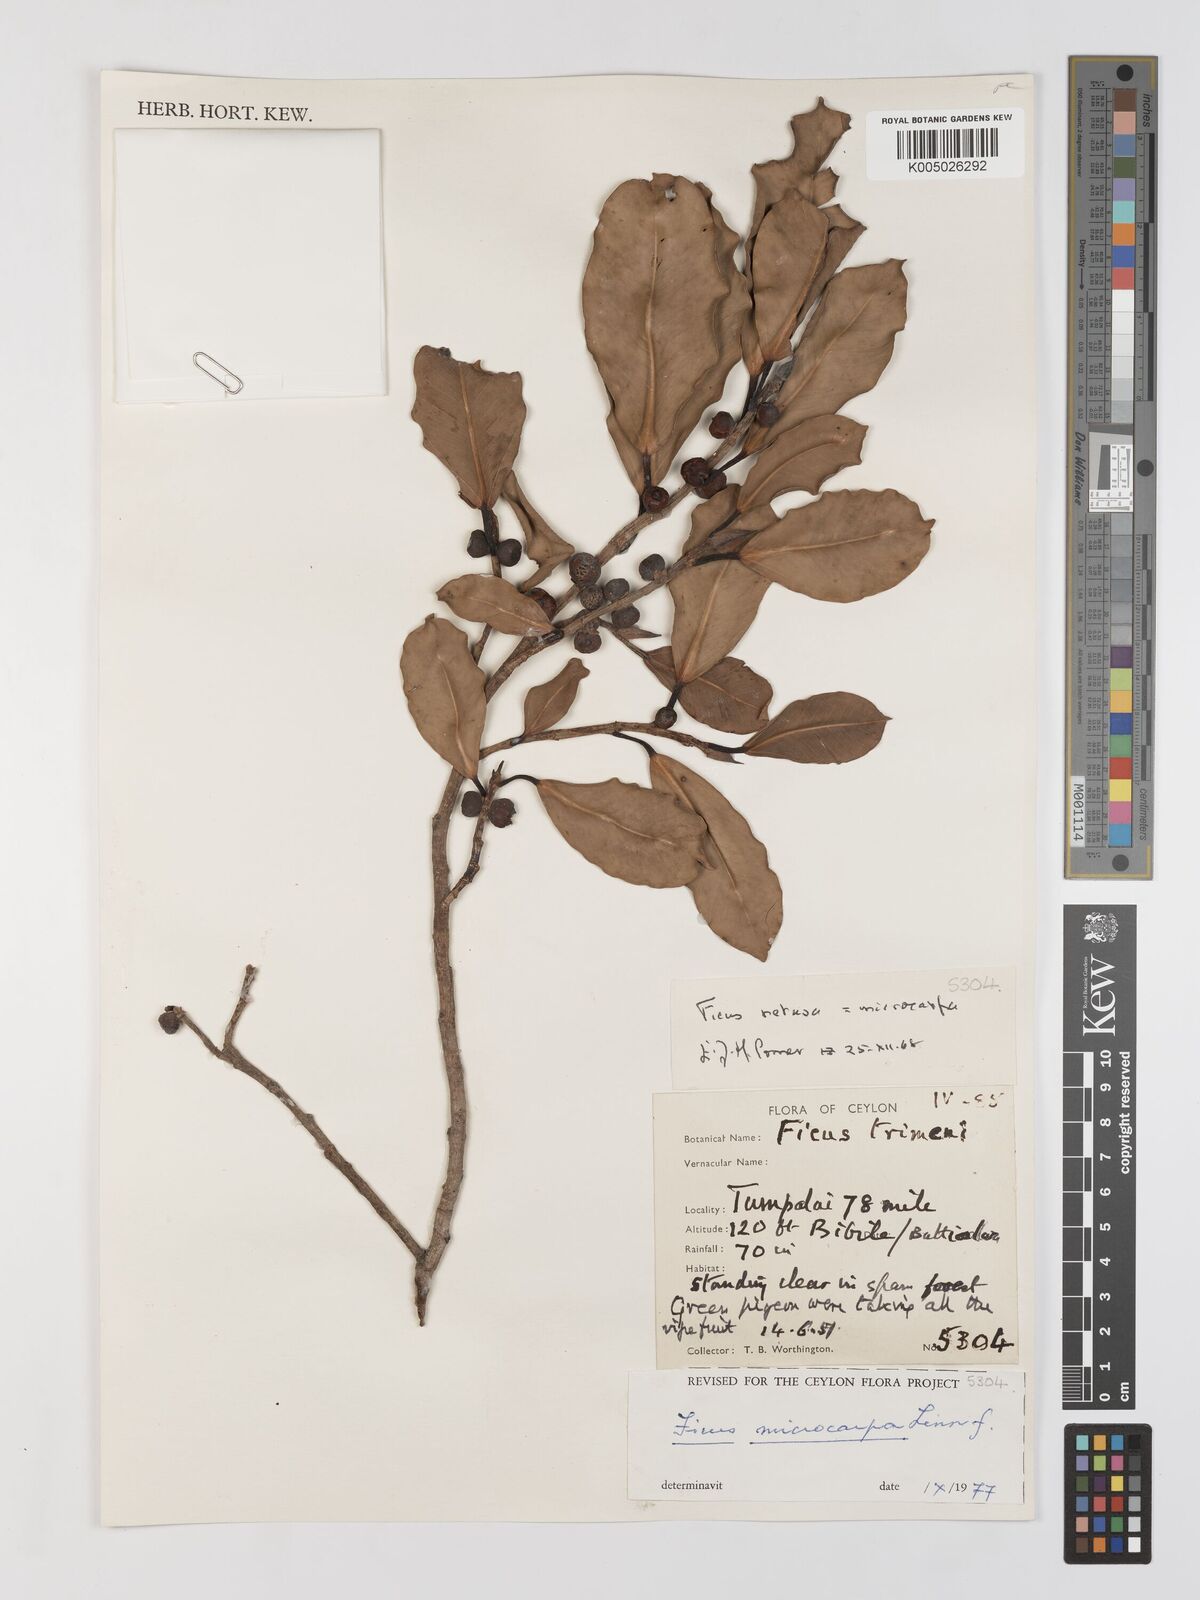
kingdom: Plantae
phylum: Tracheophyta
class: Magnoliopsida
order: Rosales
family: Moraceae
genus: Ficus
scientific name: Ficus
